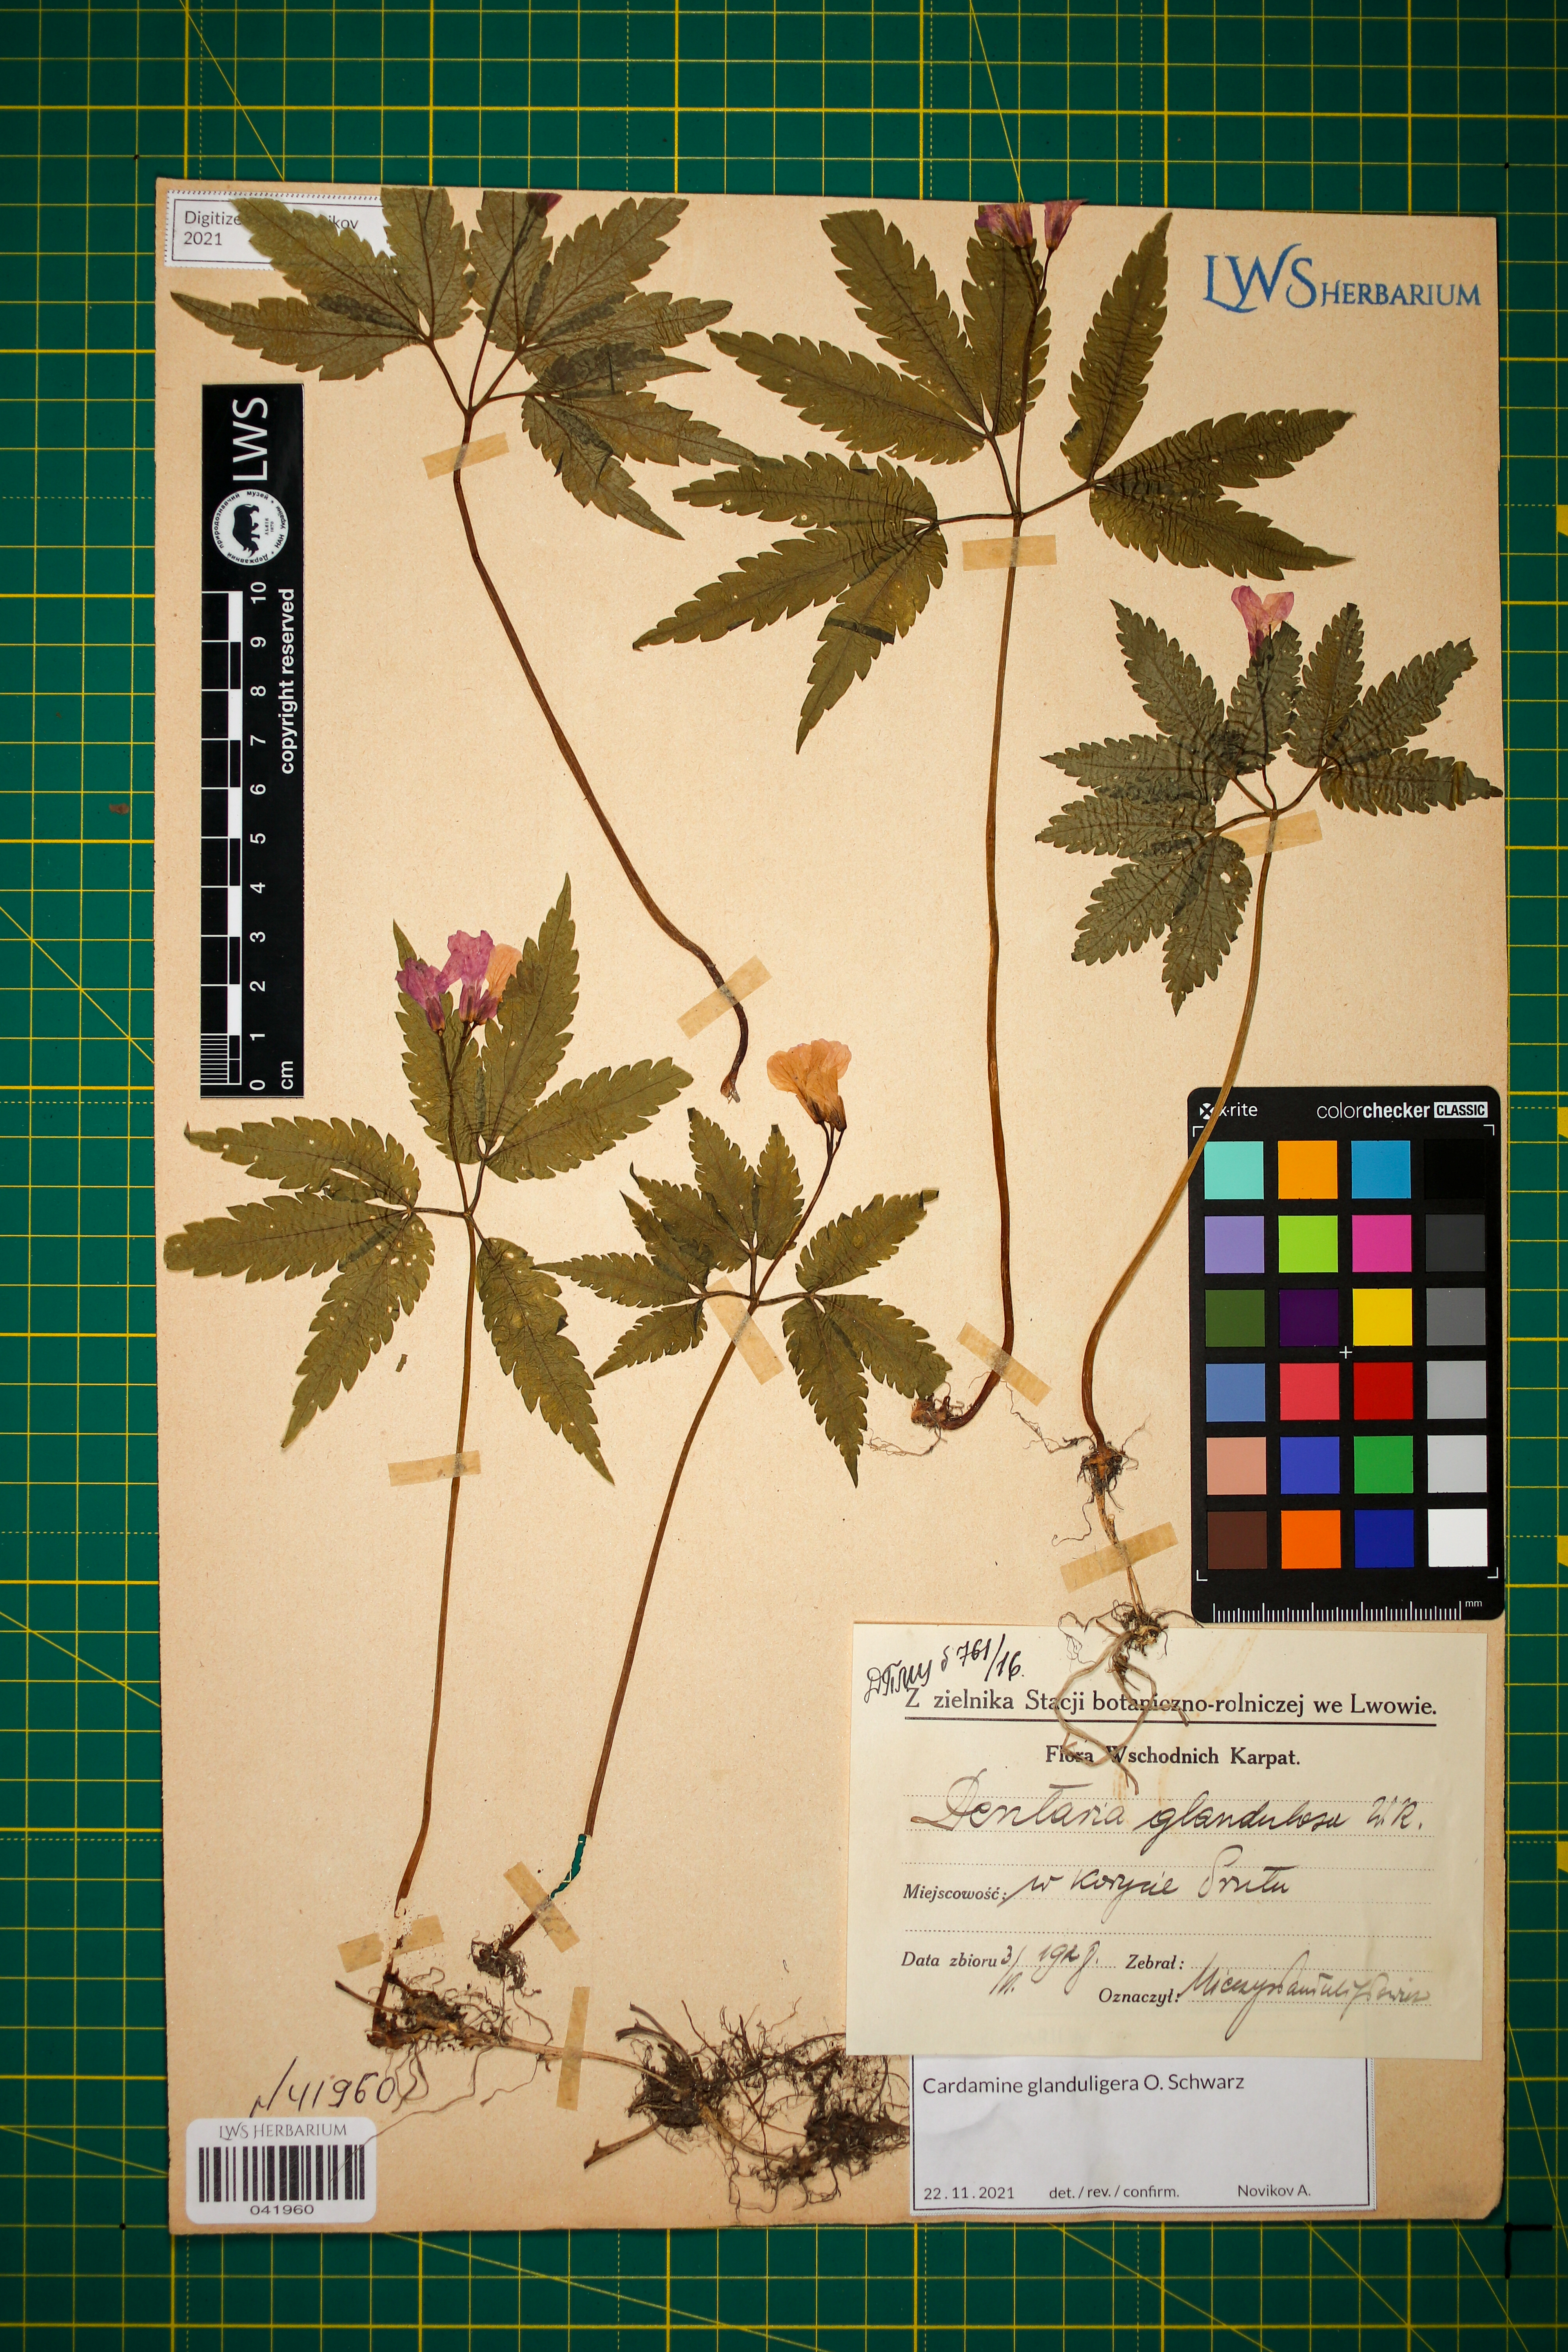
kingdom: Plantae
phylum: Tracheophyta
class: Magnoliopsida
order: Brassicales
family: Brassicaceae
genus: Cardamine
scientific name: Cardamine glanduligera
